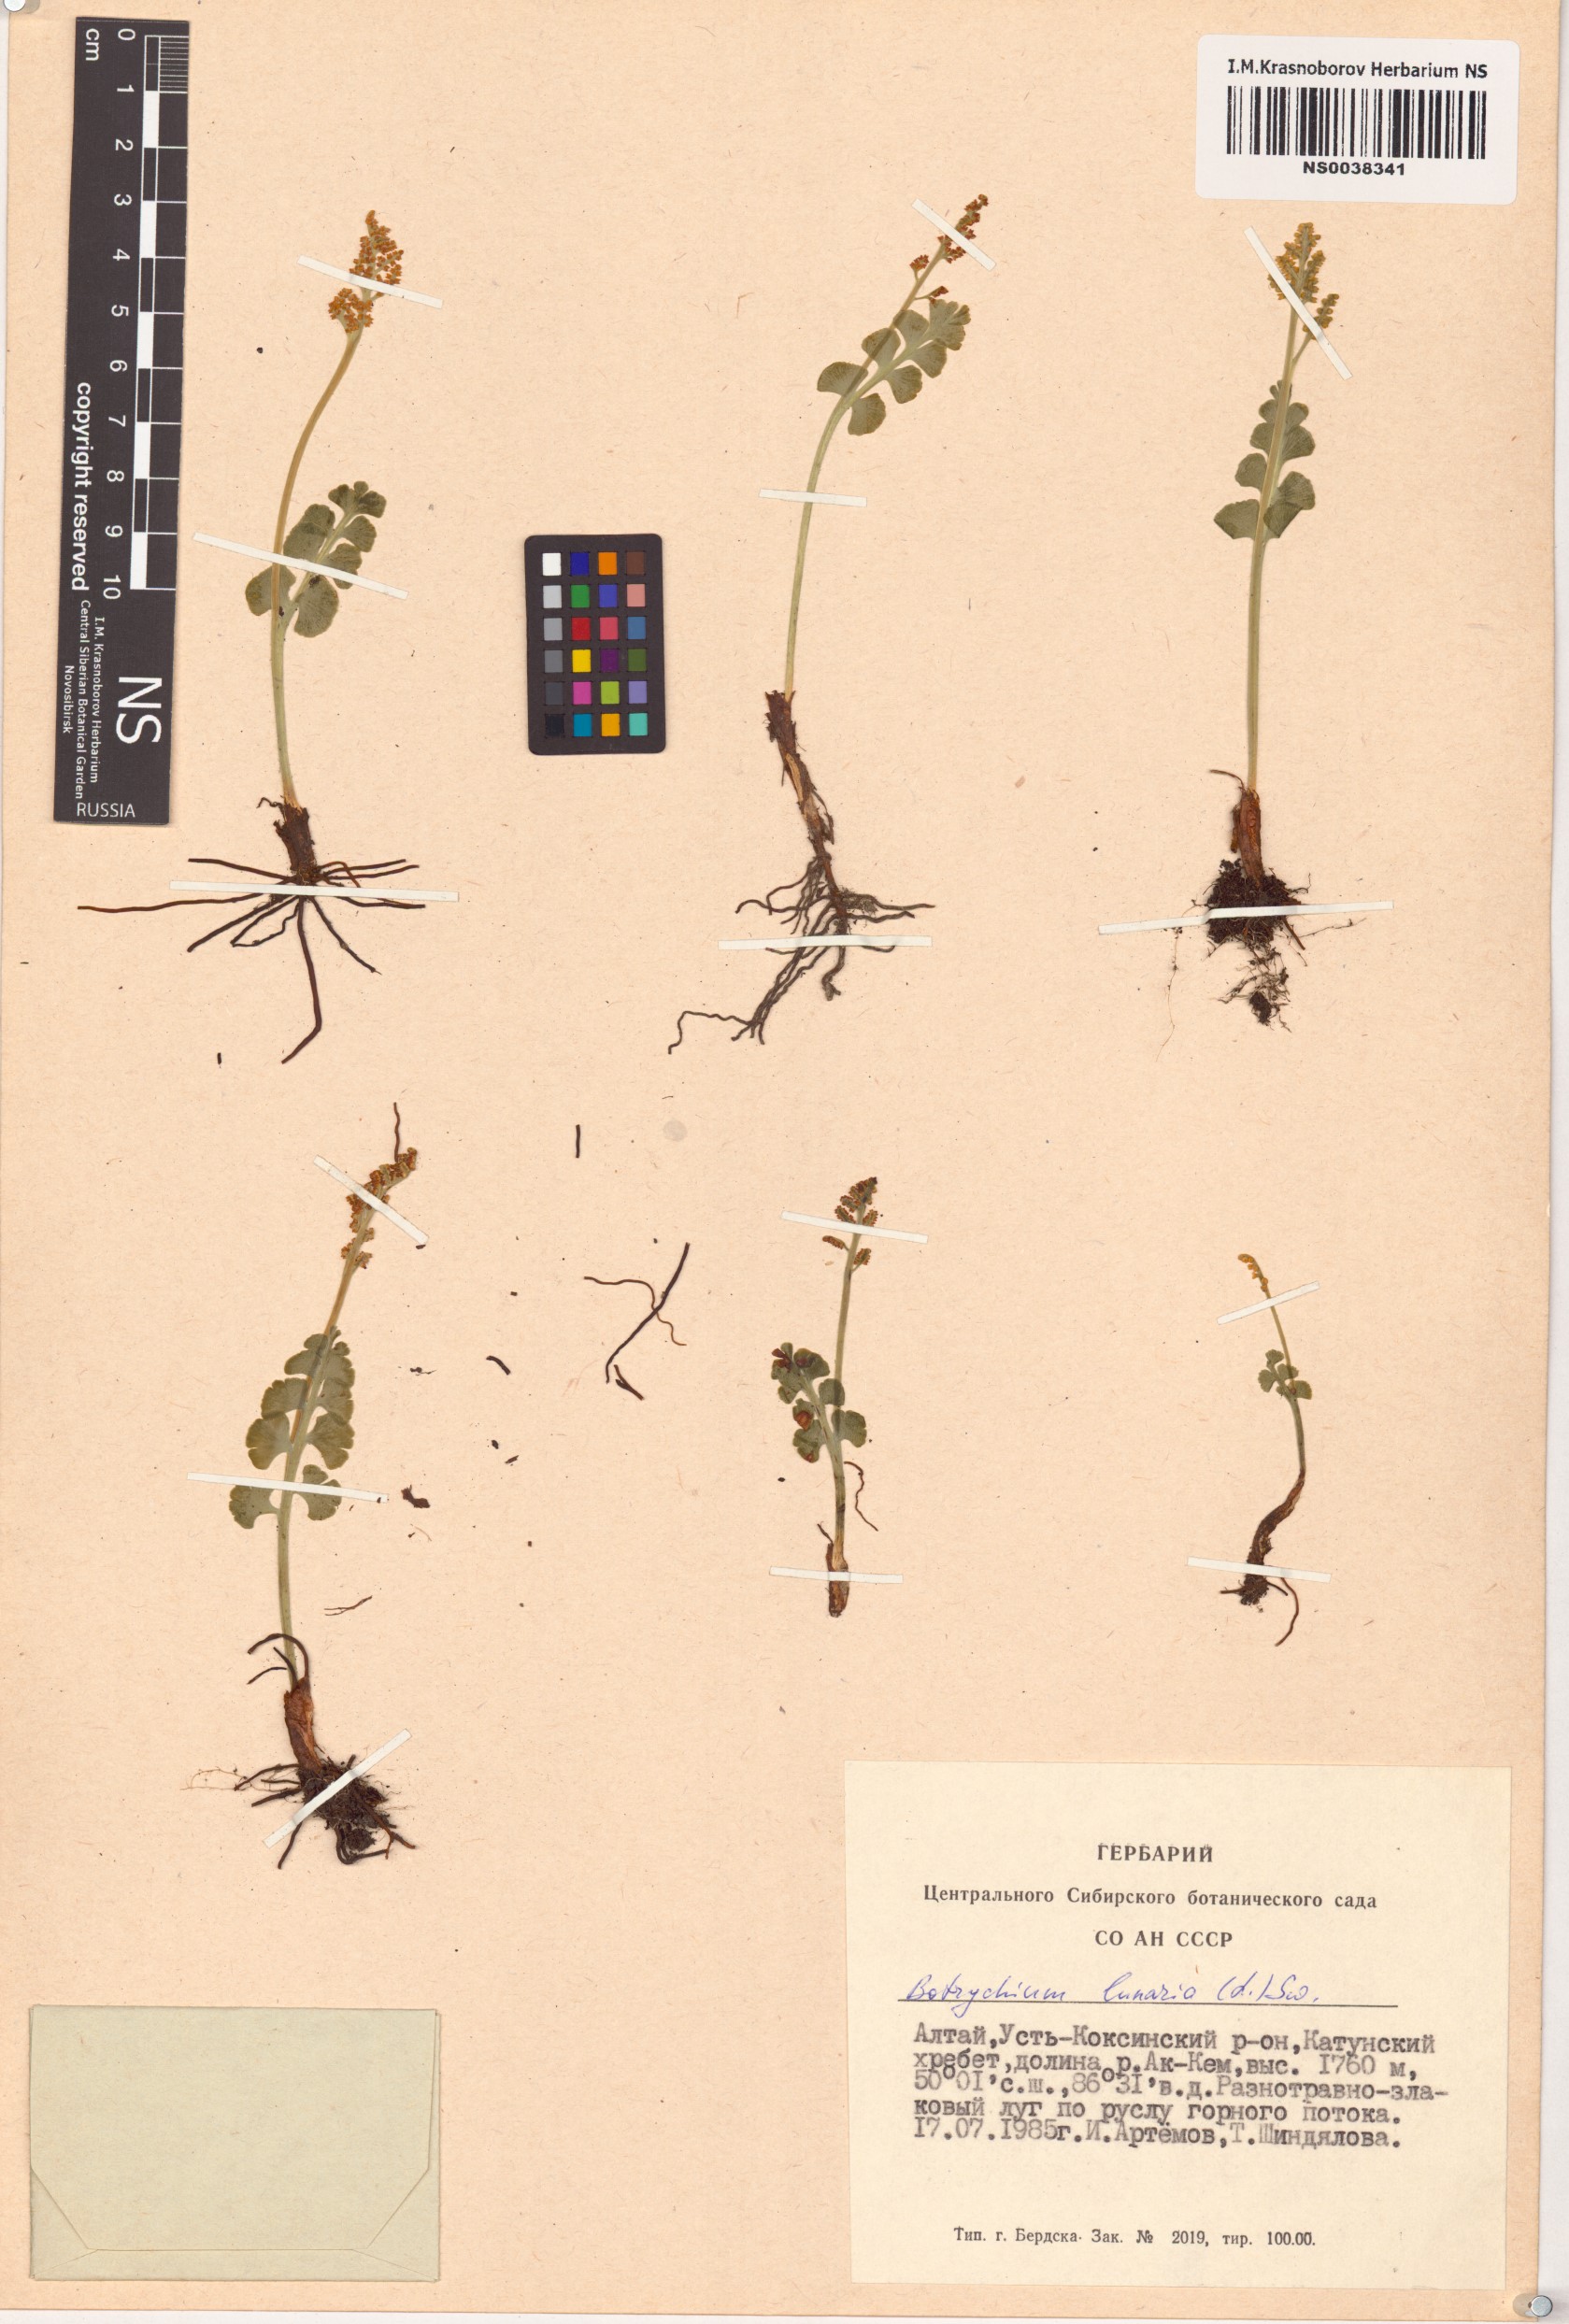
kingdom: Plantae
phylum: Tracheophyta
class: Polypodiopsida
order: Ophioglossales
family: Ophioglossaceae
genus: Botrychium
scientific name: Botrychium lunaria
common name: Moonwort
